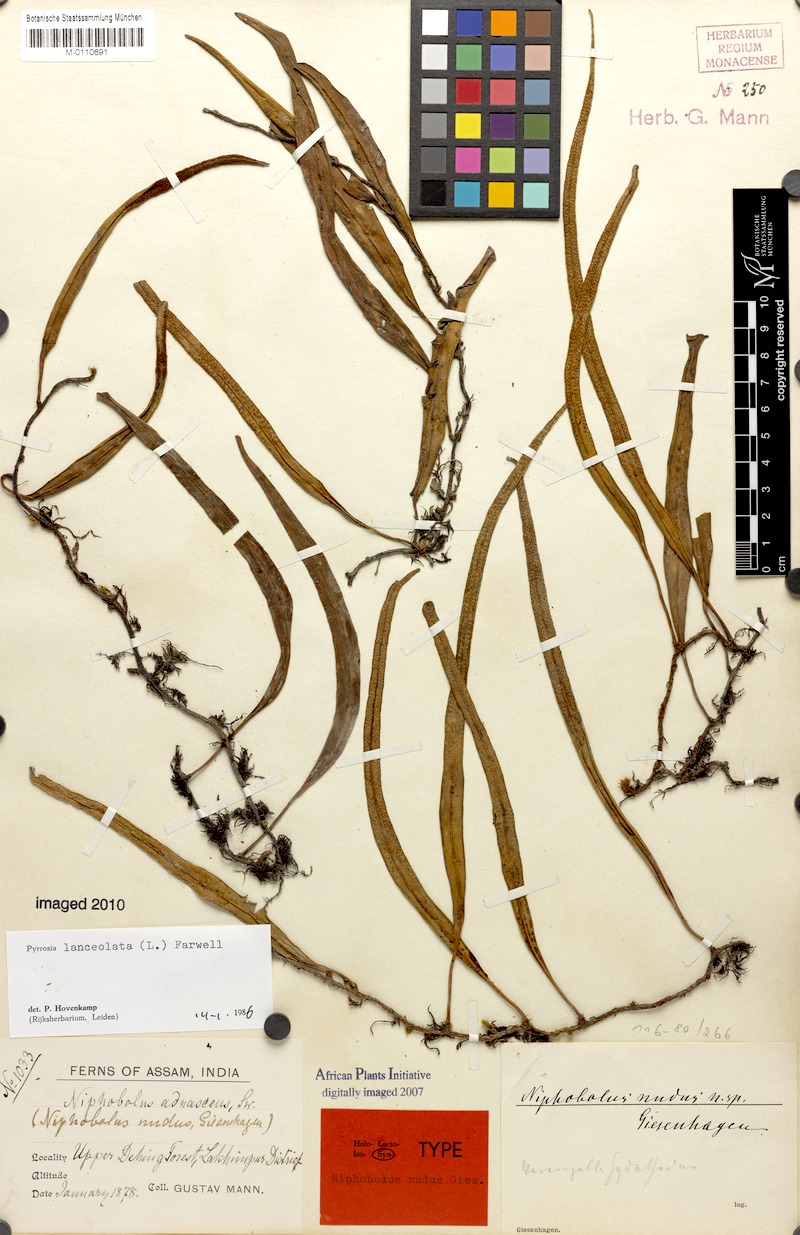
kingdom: Plantae
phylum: Tracheophyta
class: Polypodiopsida
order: Polypodiales
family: Polypodiaceae
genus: Pyrrosia
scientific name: Pyrrosia lanceolata
